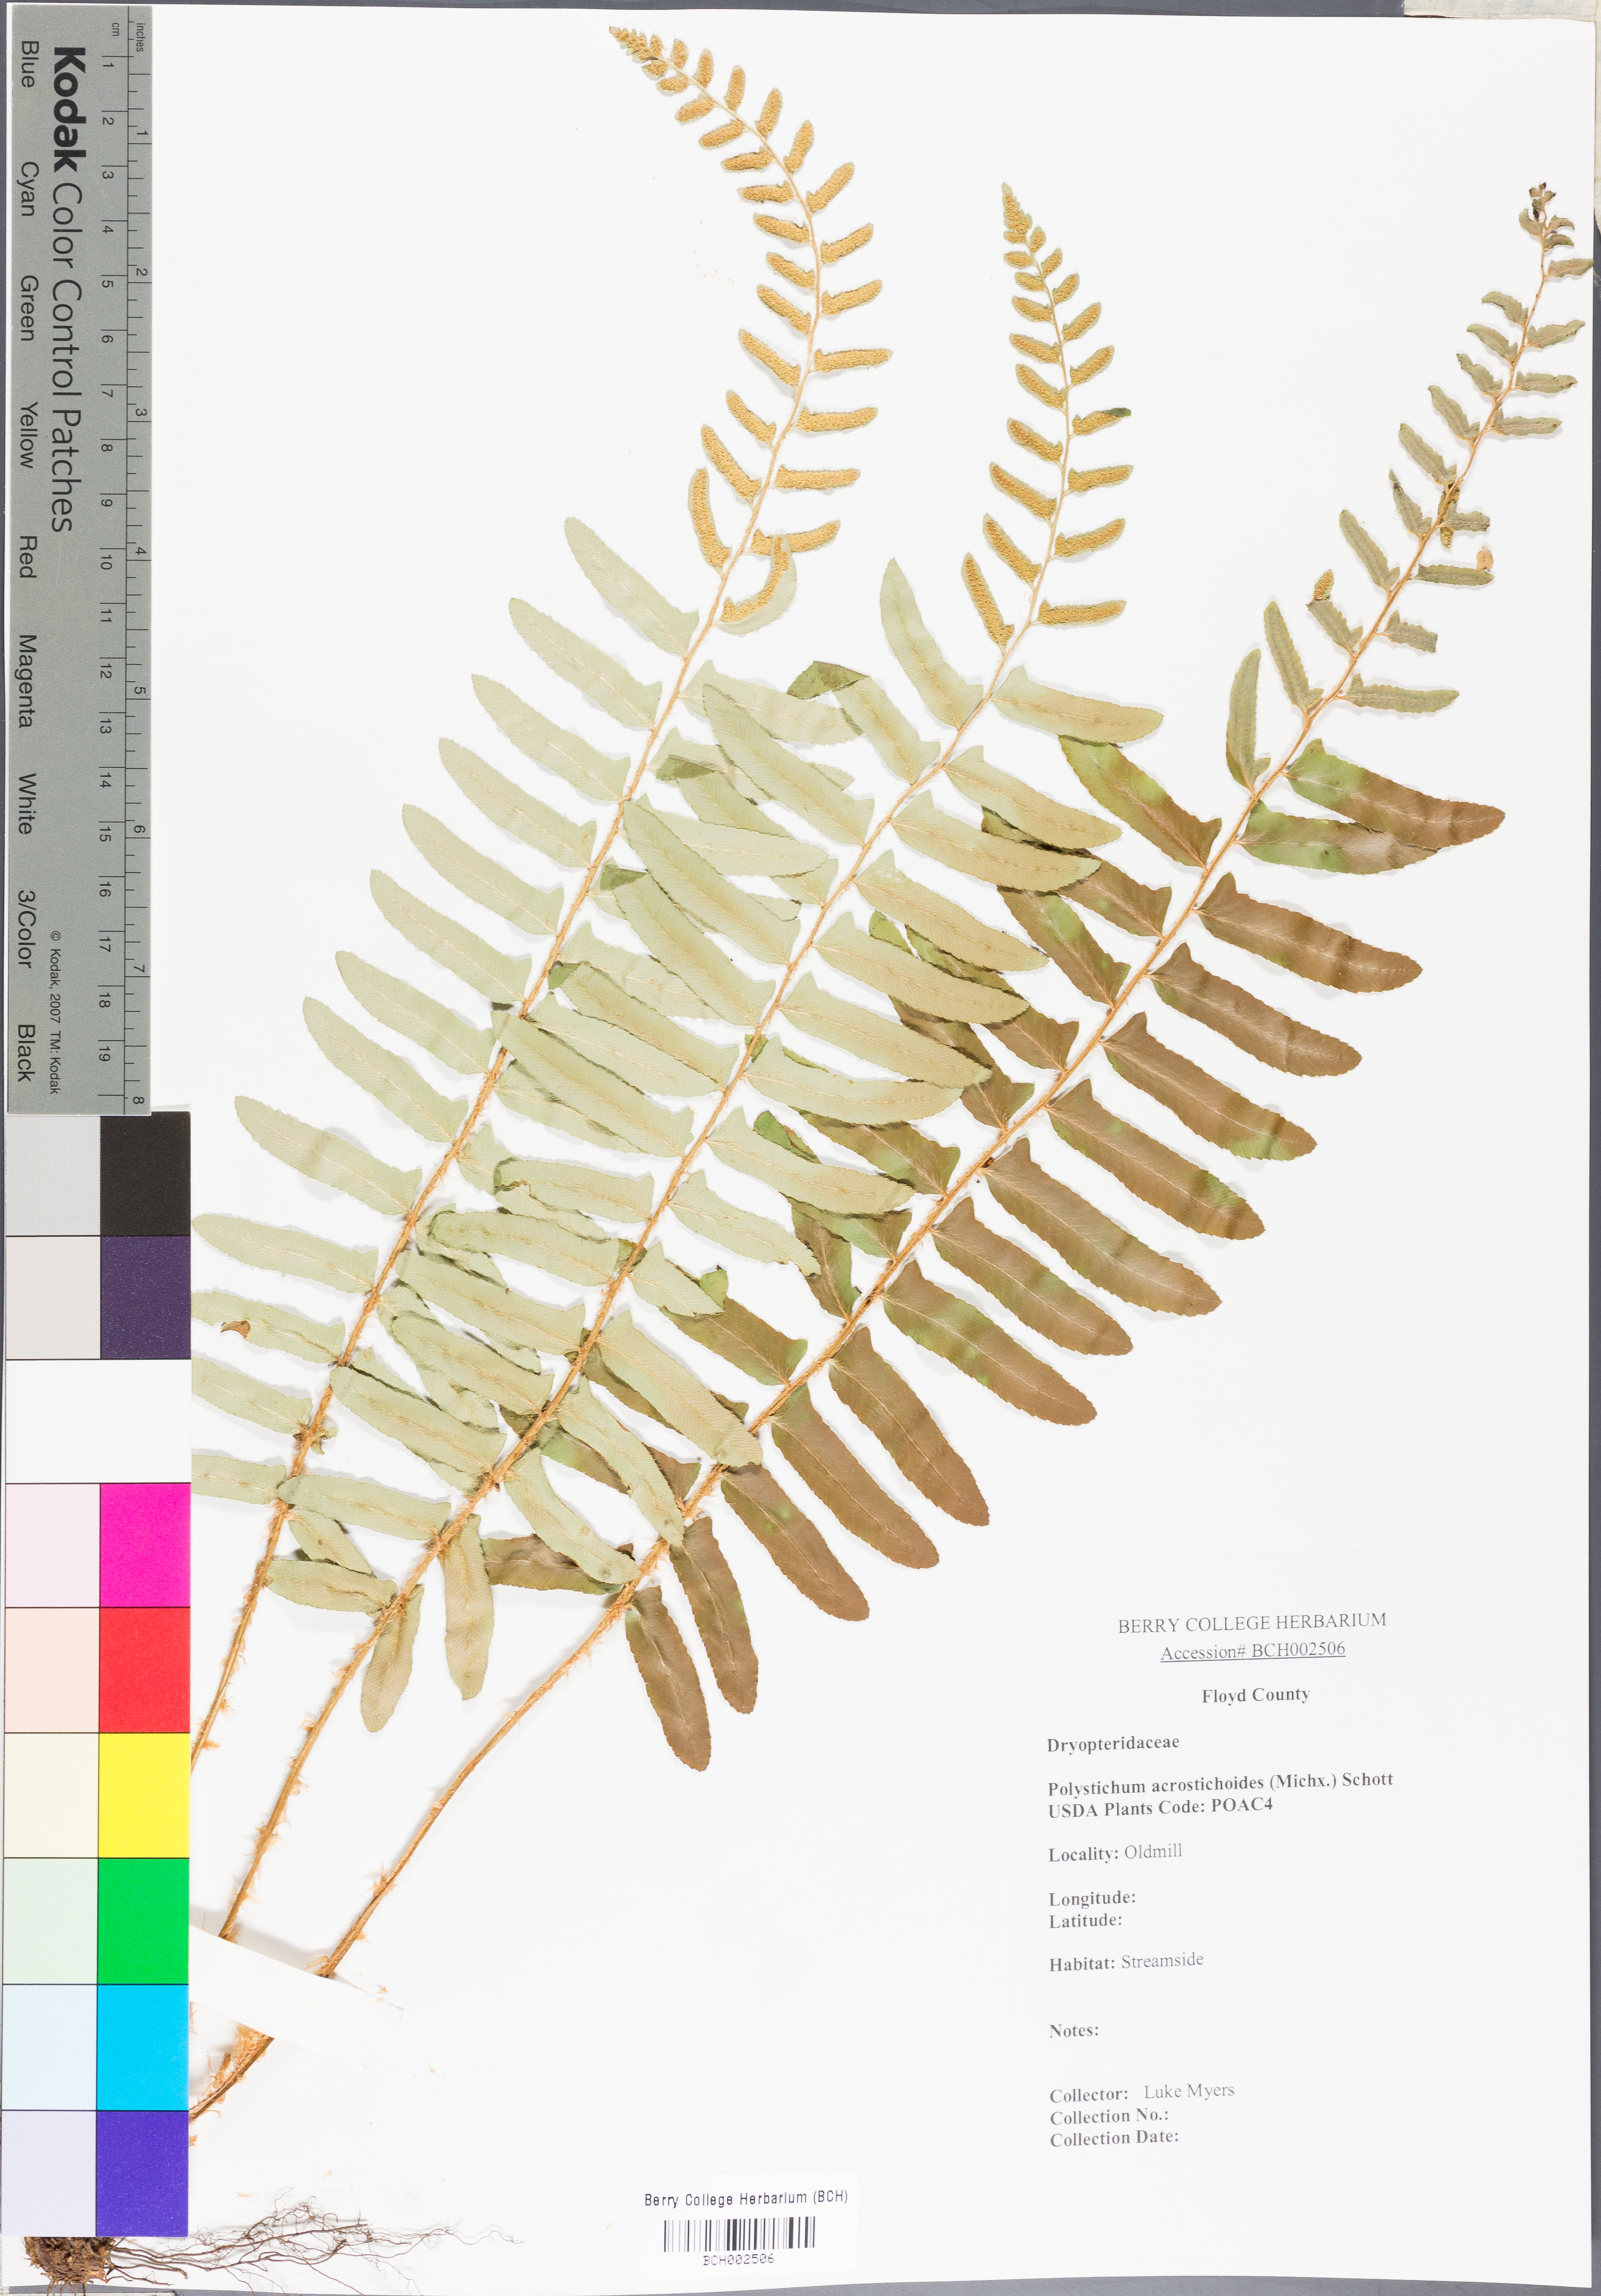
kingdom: Plantae
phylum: Tracheophyta
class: Polypodiopsida
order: Polypodiales
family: Dryopteridaceae
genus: Polystichum
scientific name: Polystichum acrostichoides
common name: Christmas fern
